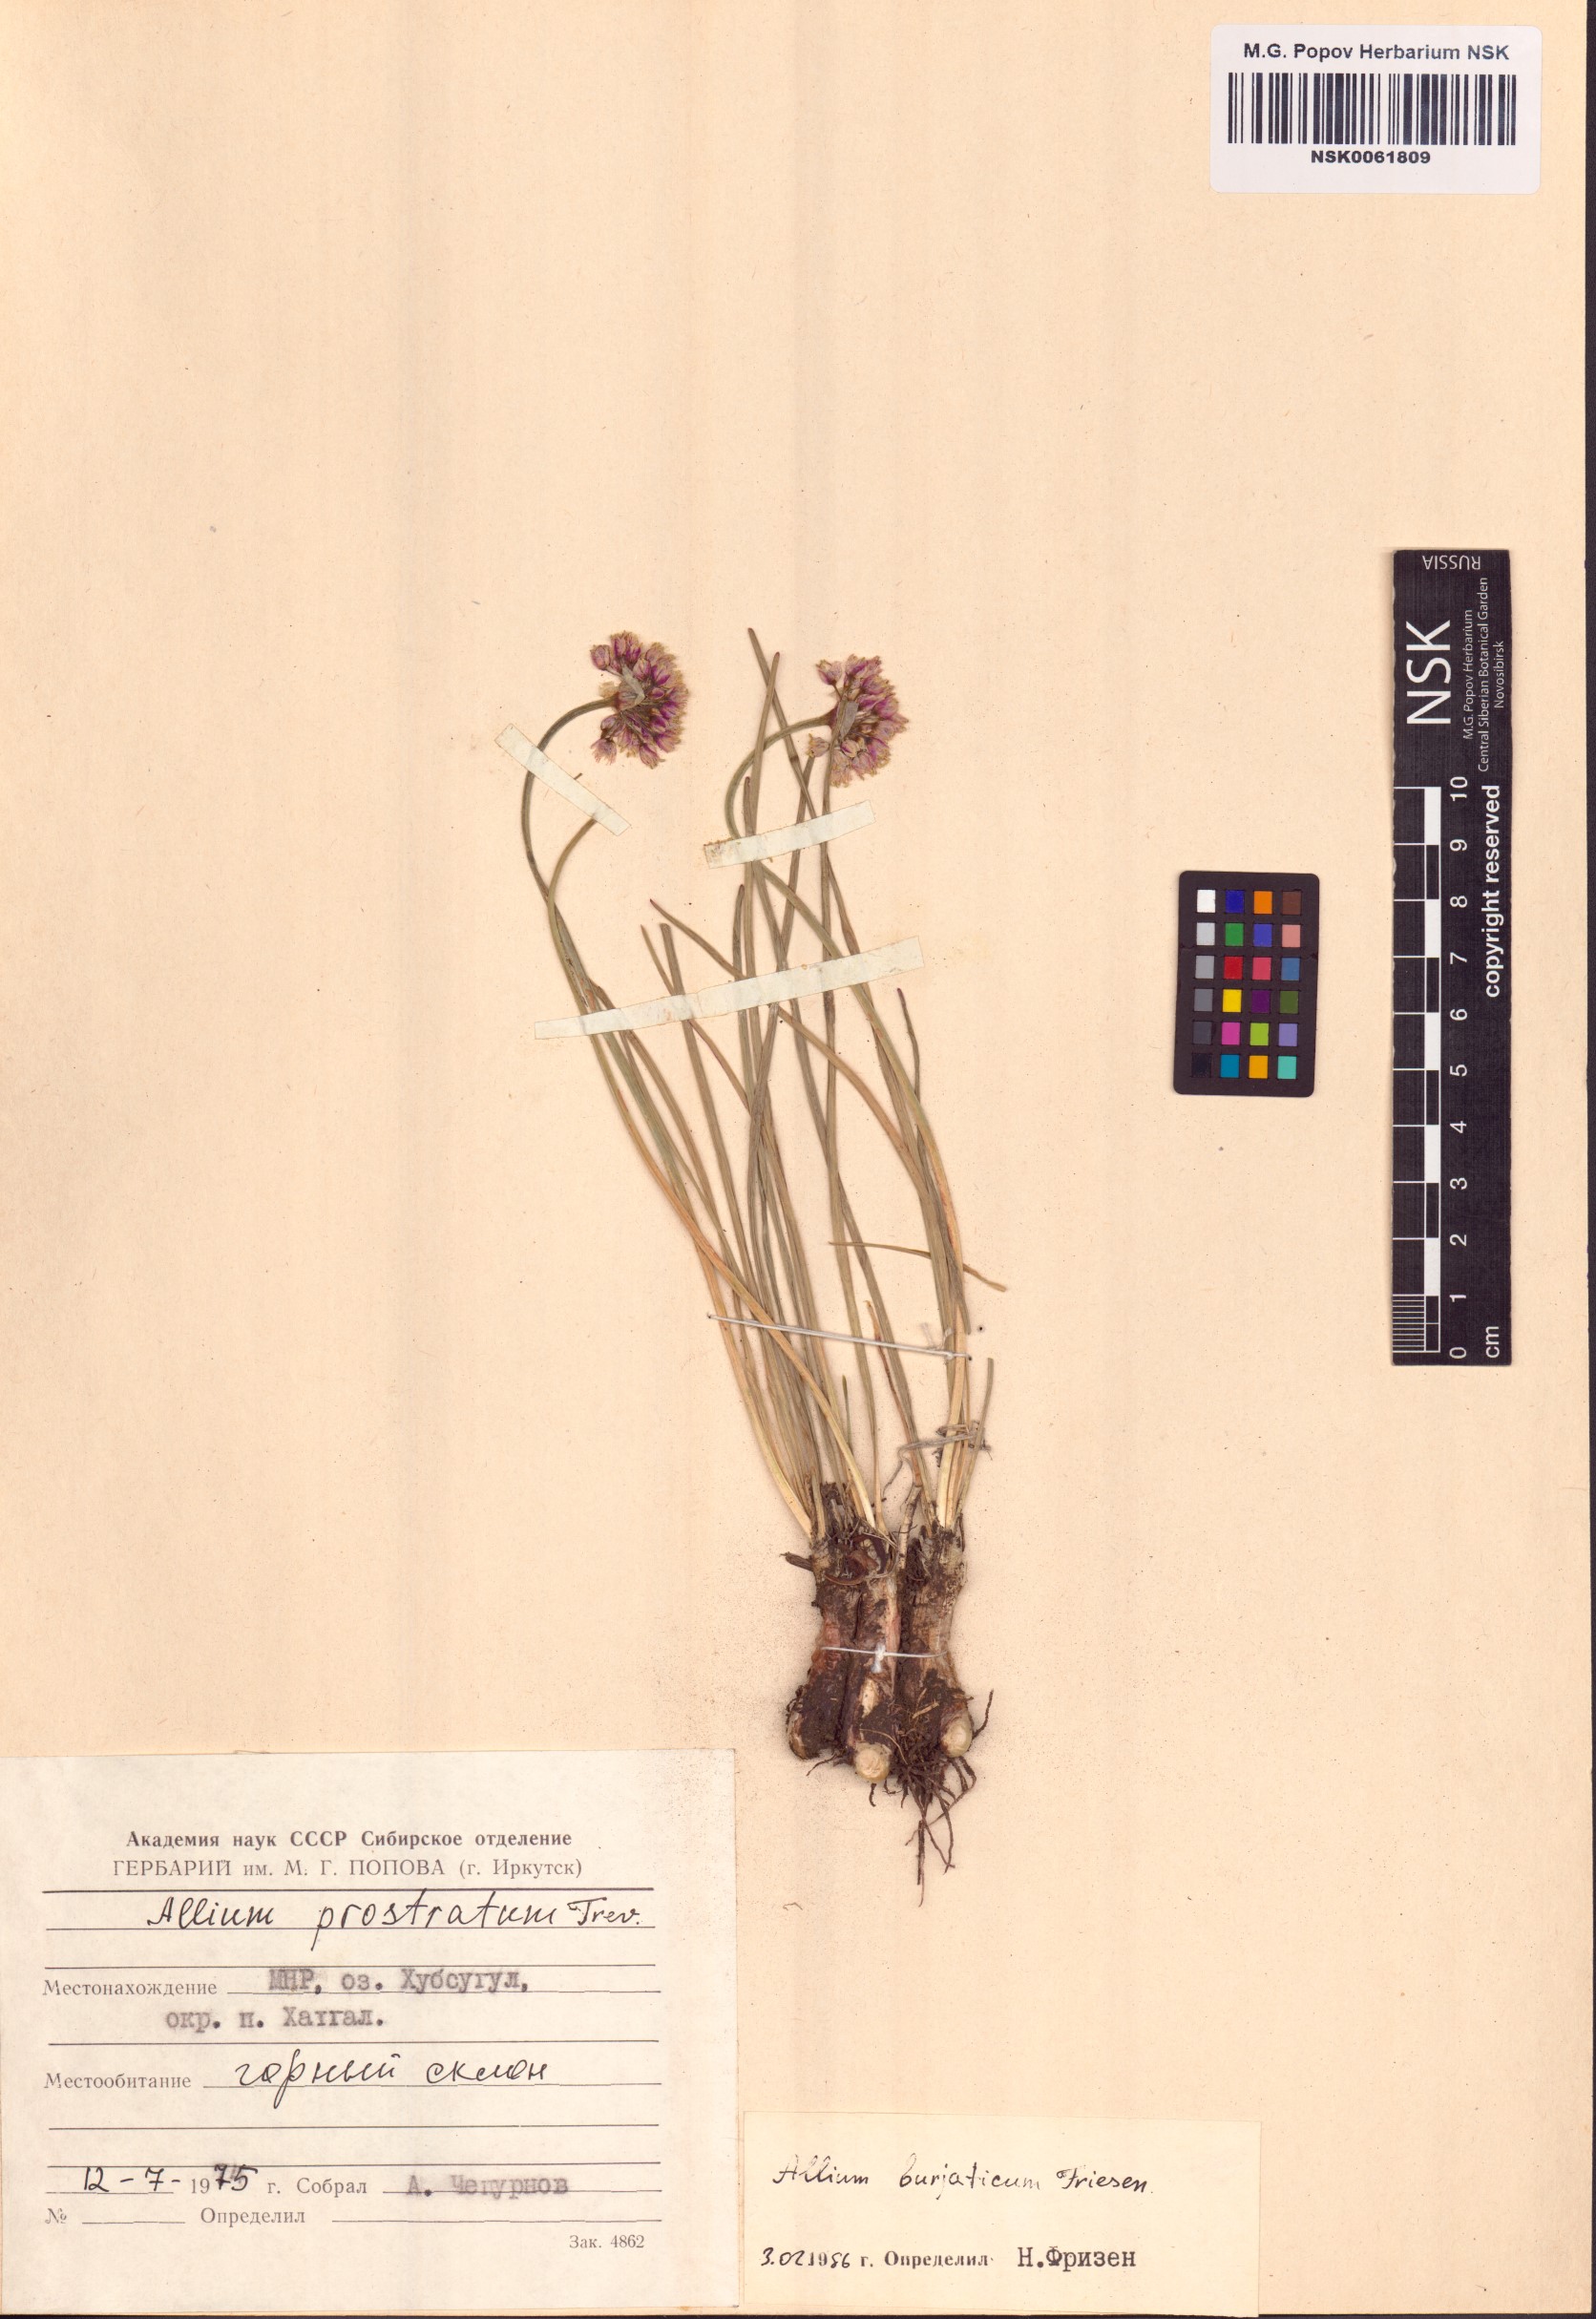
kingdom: Plantae
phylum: Tracheophyta
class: Liliopsida
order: Asparagales
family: Amaryllidaceae
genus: Allium
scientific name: Allium prostratum
